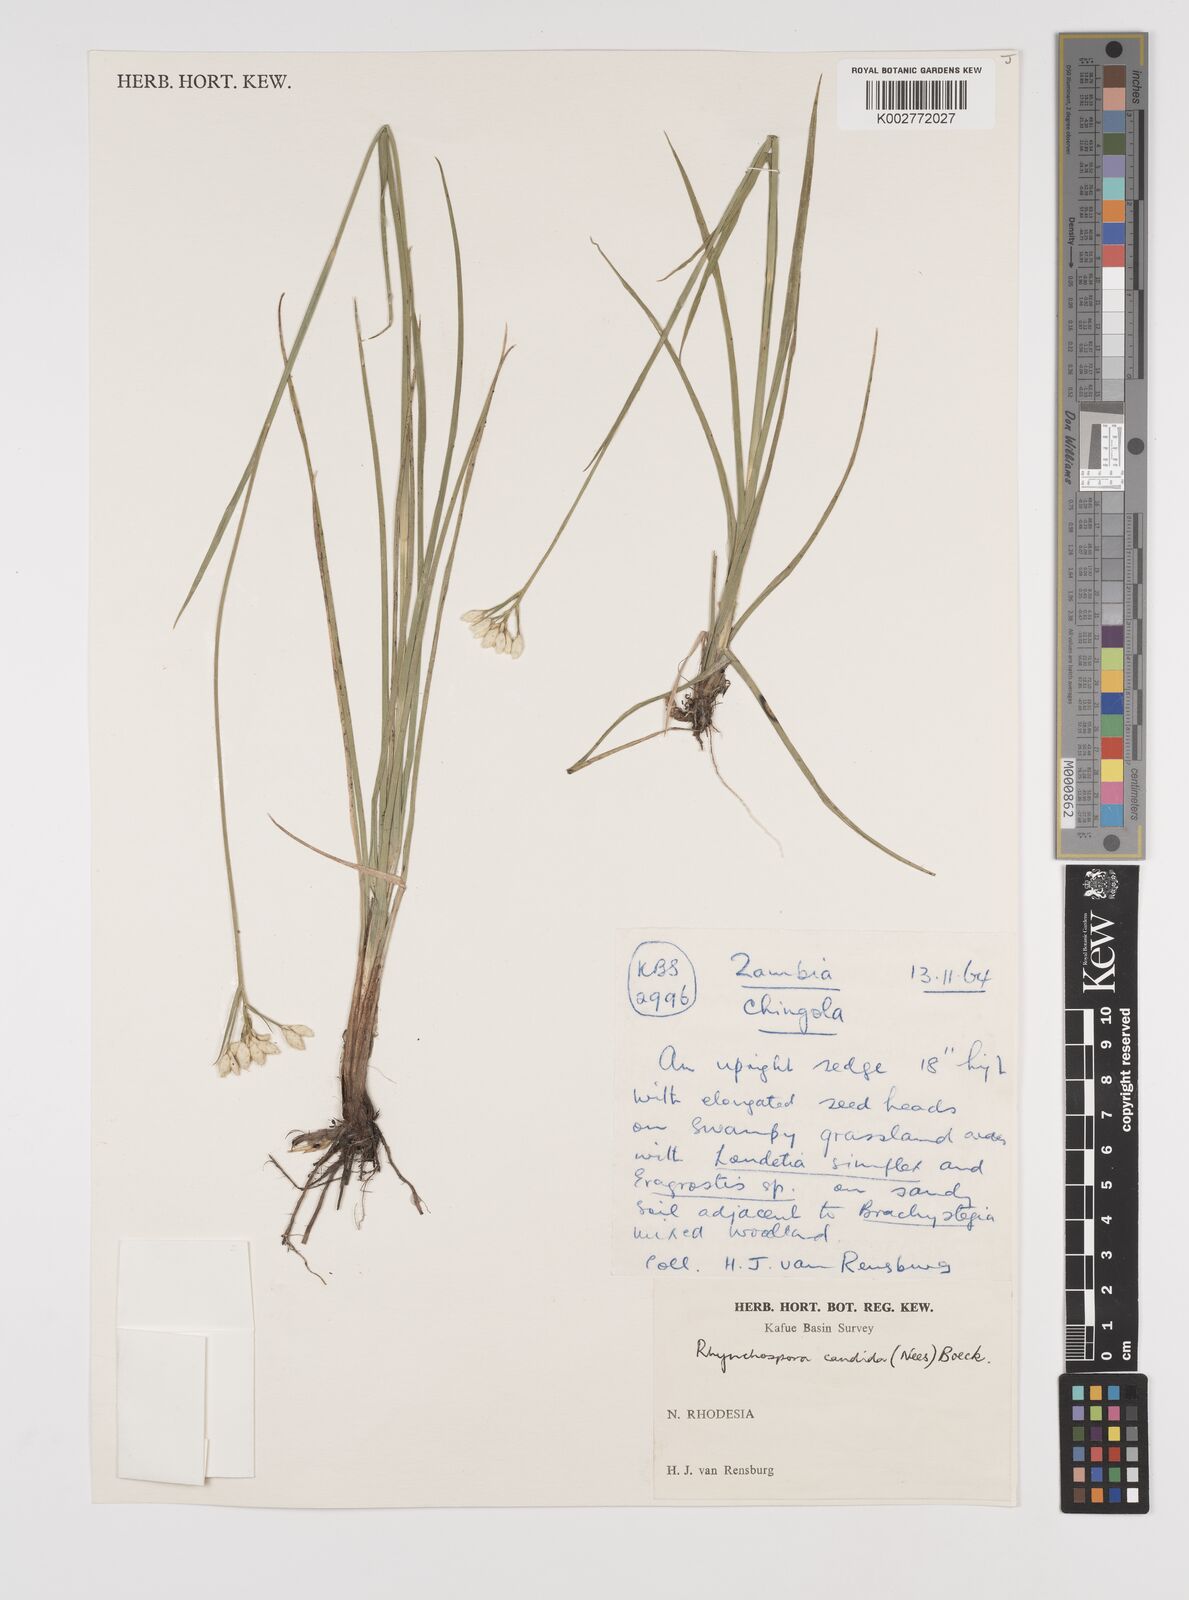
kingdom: Plantae
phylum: Tracheophyta
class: Liliopsida
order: Poales
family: Cyperaceae
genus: Rhynchospora
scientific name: Rhynchospora candida
